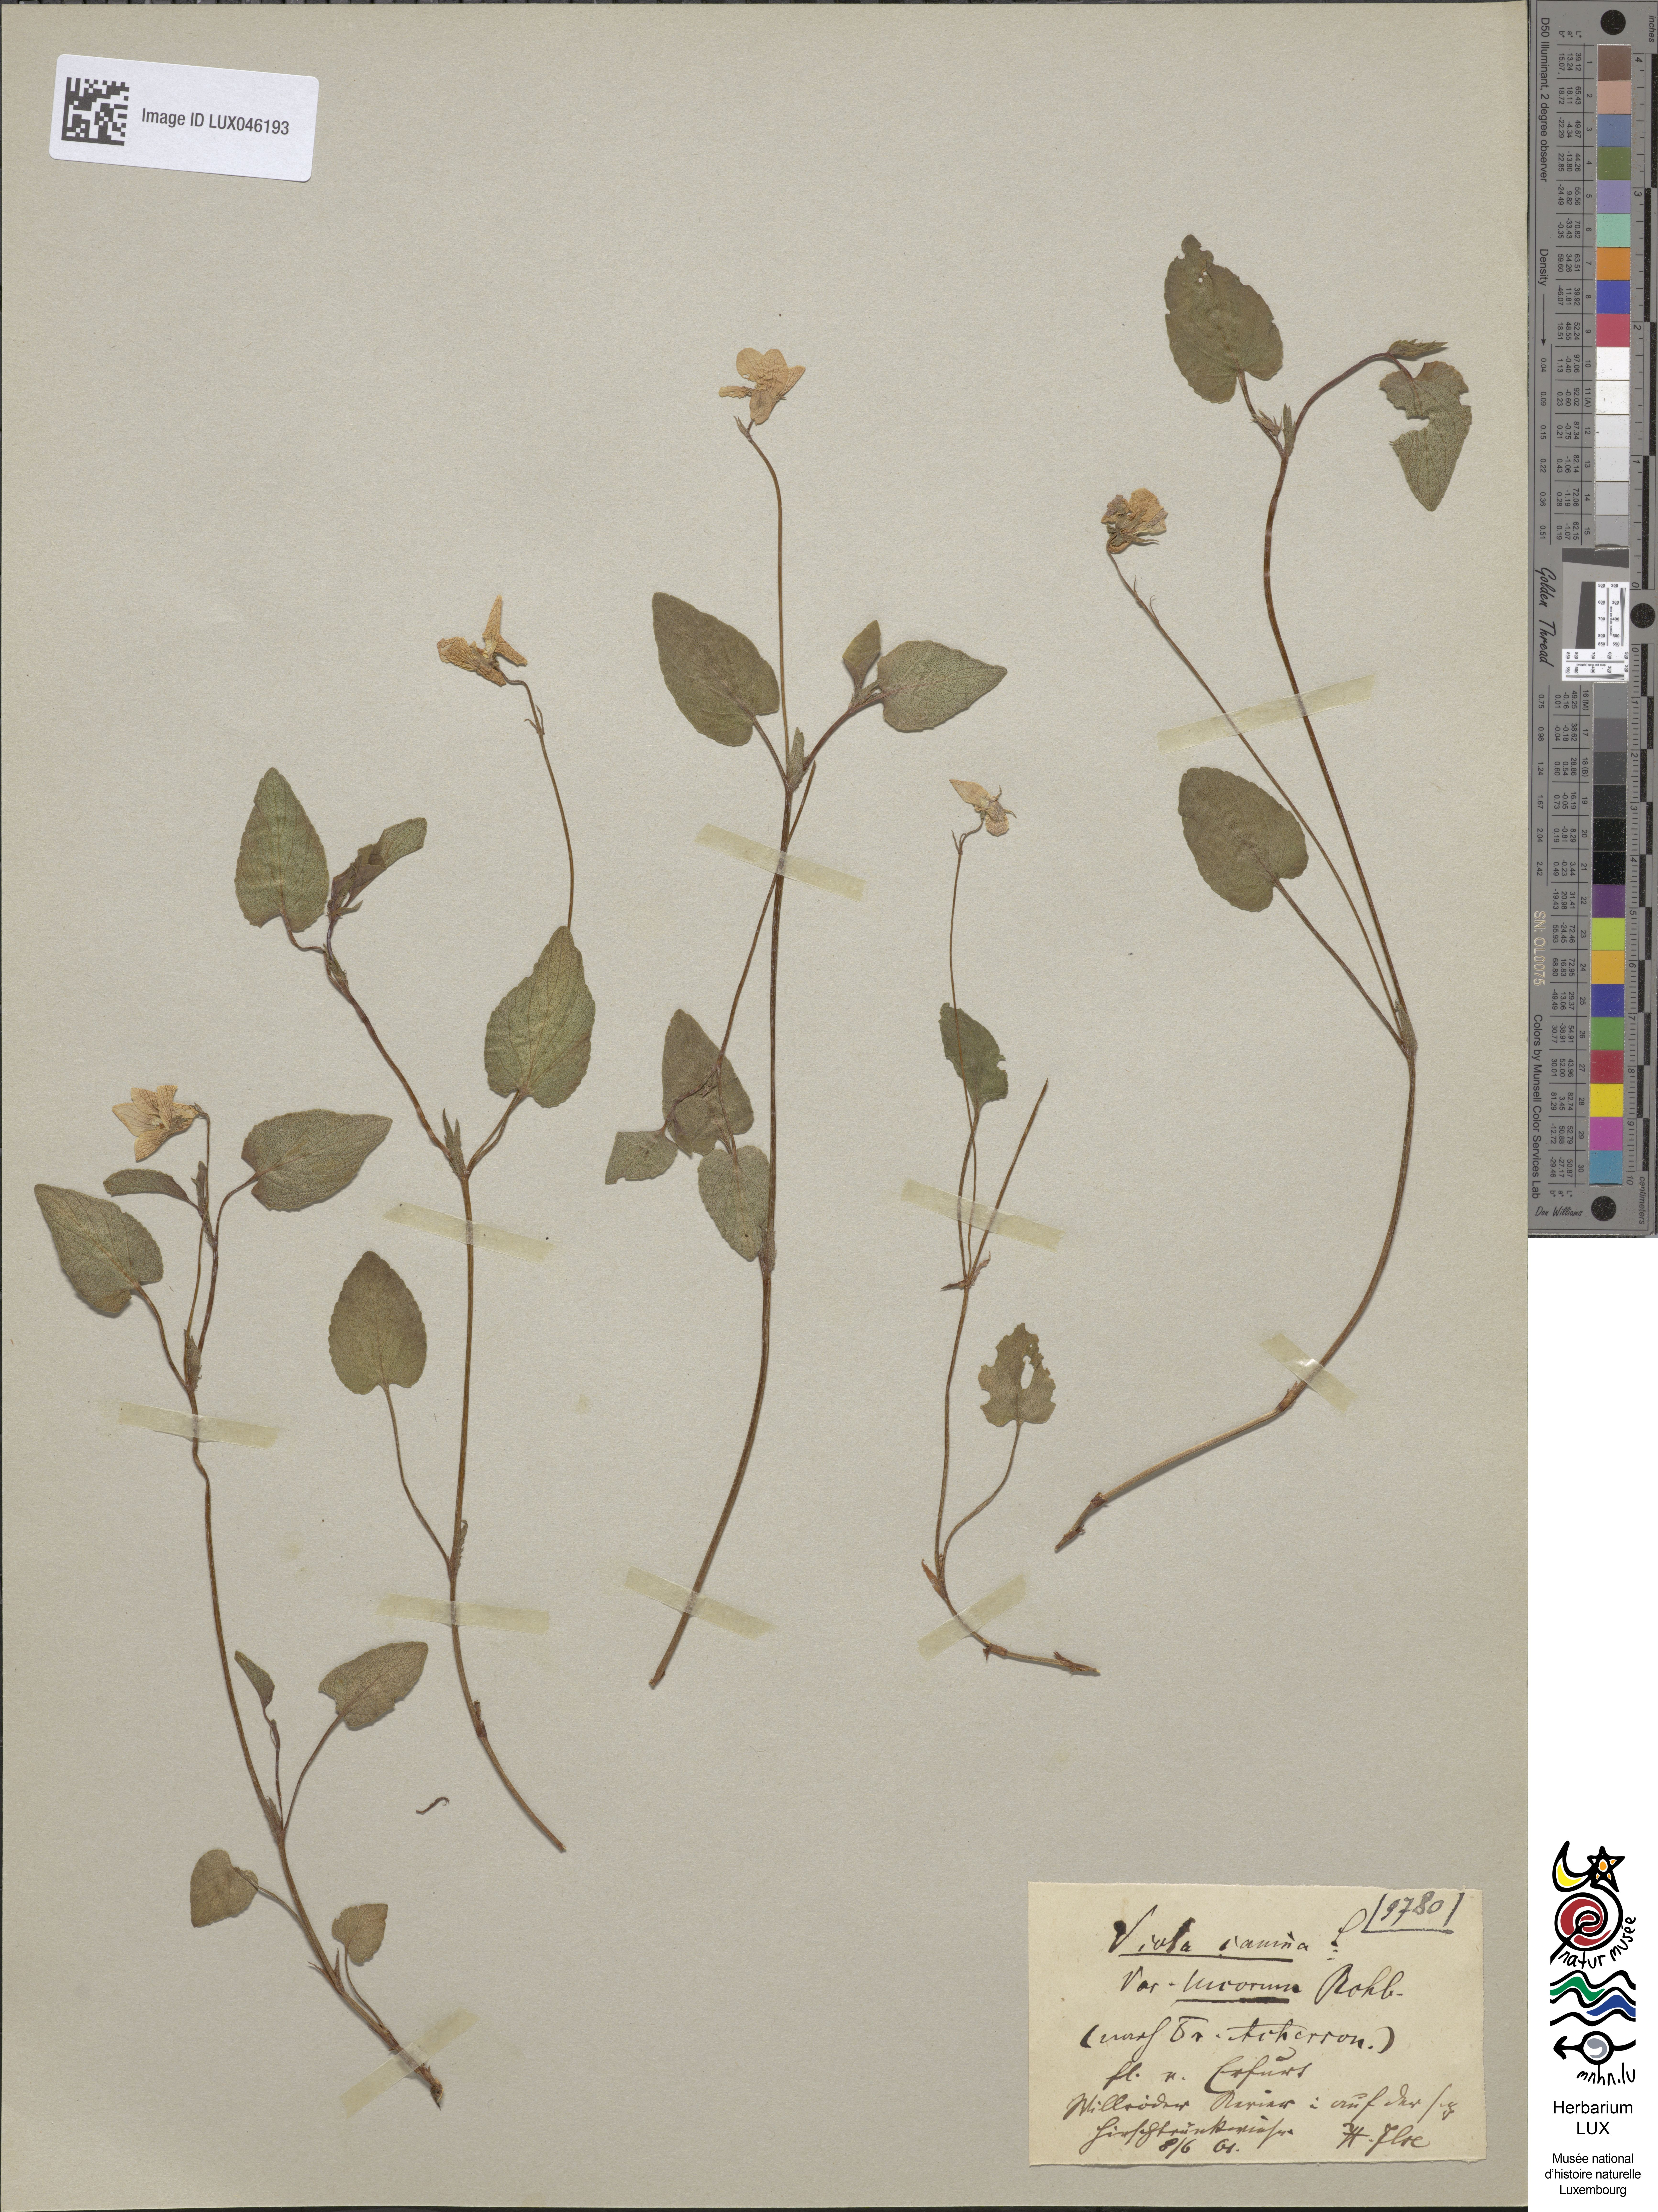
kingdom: Plantae
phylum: Tracheophyta
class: Magnoliopsida
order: Malpighiales
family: Violaceae
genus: Viola
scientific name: Viola canina
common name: Heath dog-violet
